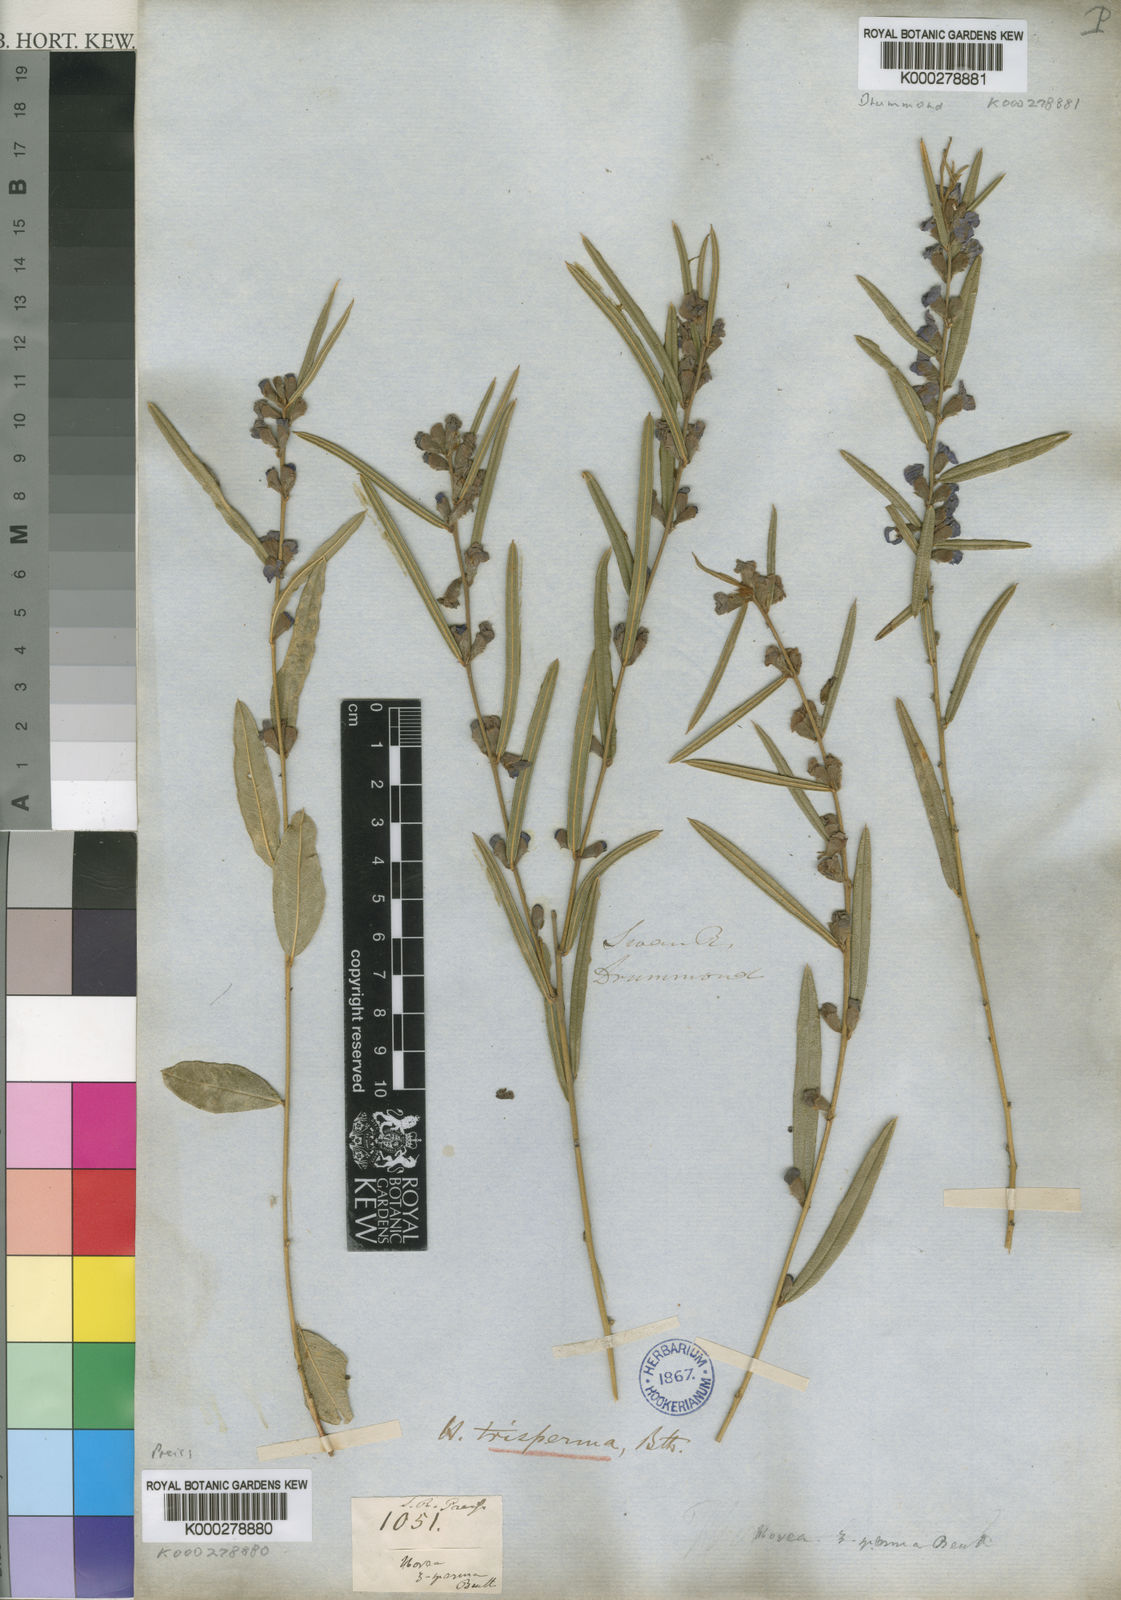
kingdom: Plantae
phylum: Tracheophyta
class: Magnoliopsida
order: Fabales
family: Fabaceae
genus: Hovea
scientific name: Hovea trisperma
